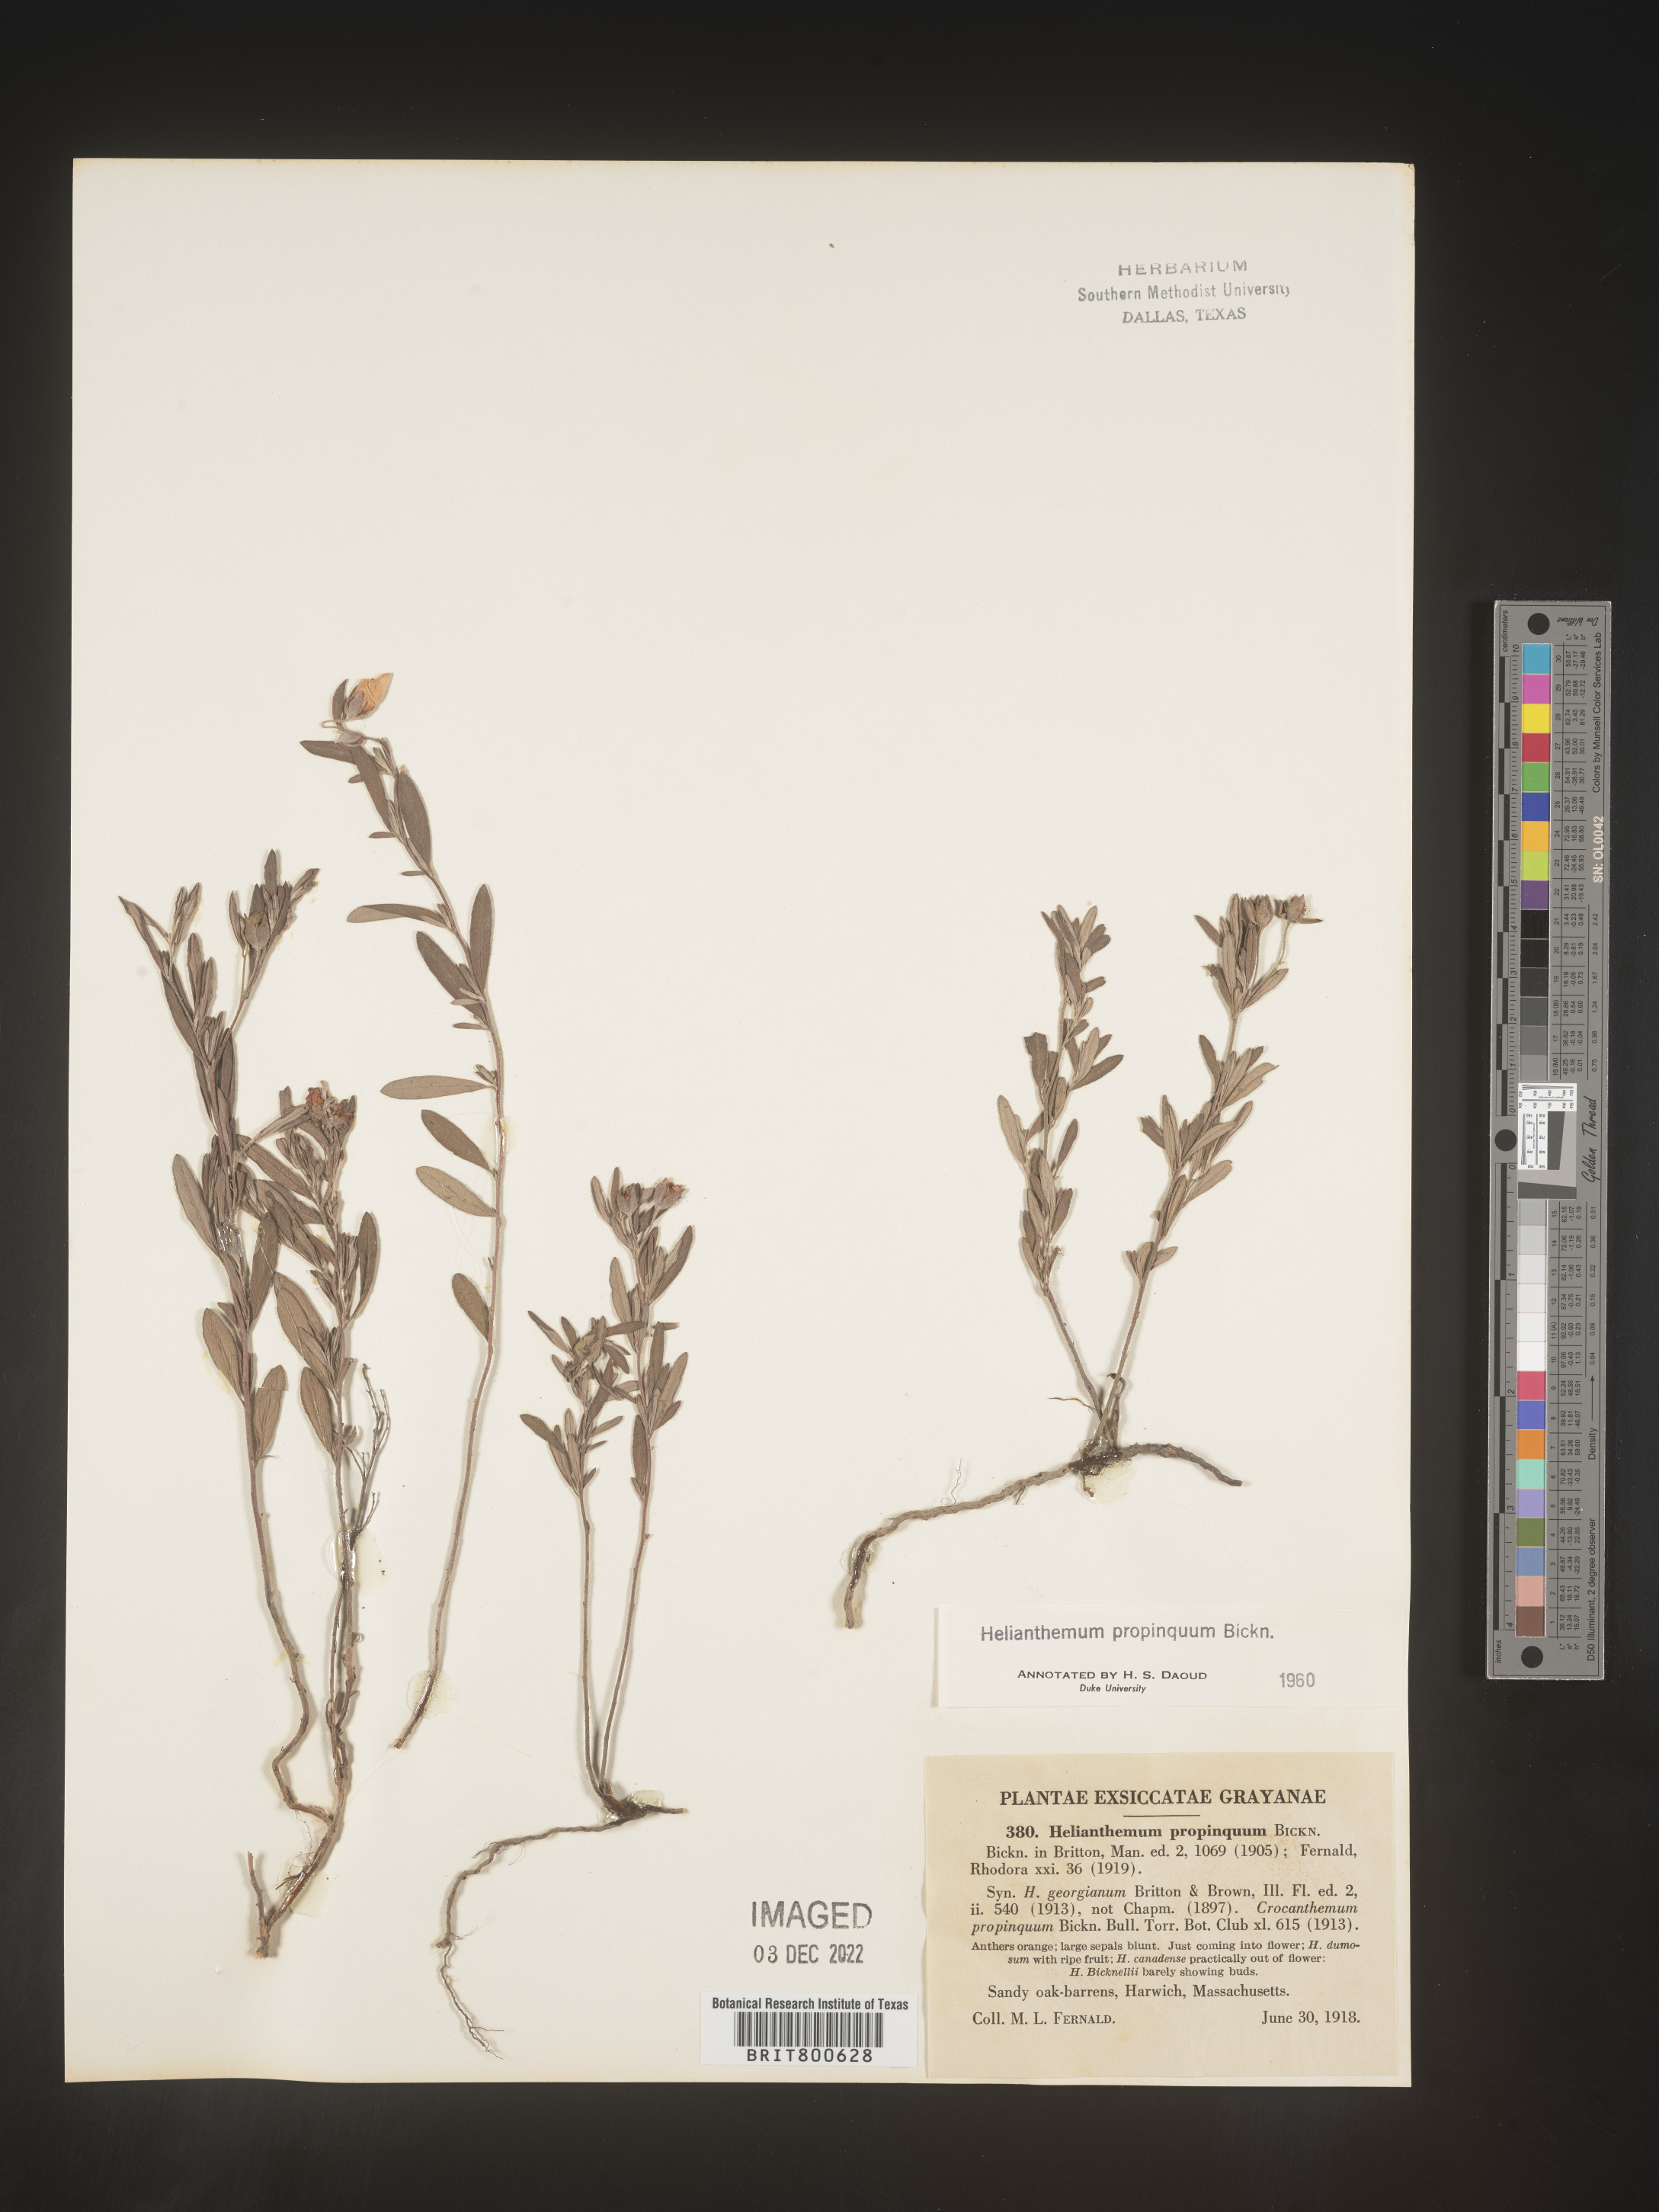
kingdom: Plantae
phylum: Tracheophyta
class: Magnoliopsida
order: Malvales
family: Cistaceae
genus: Helianthemum
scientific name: Helianthemum
